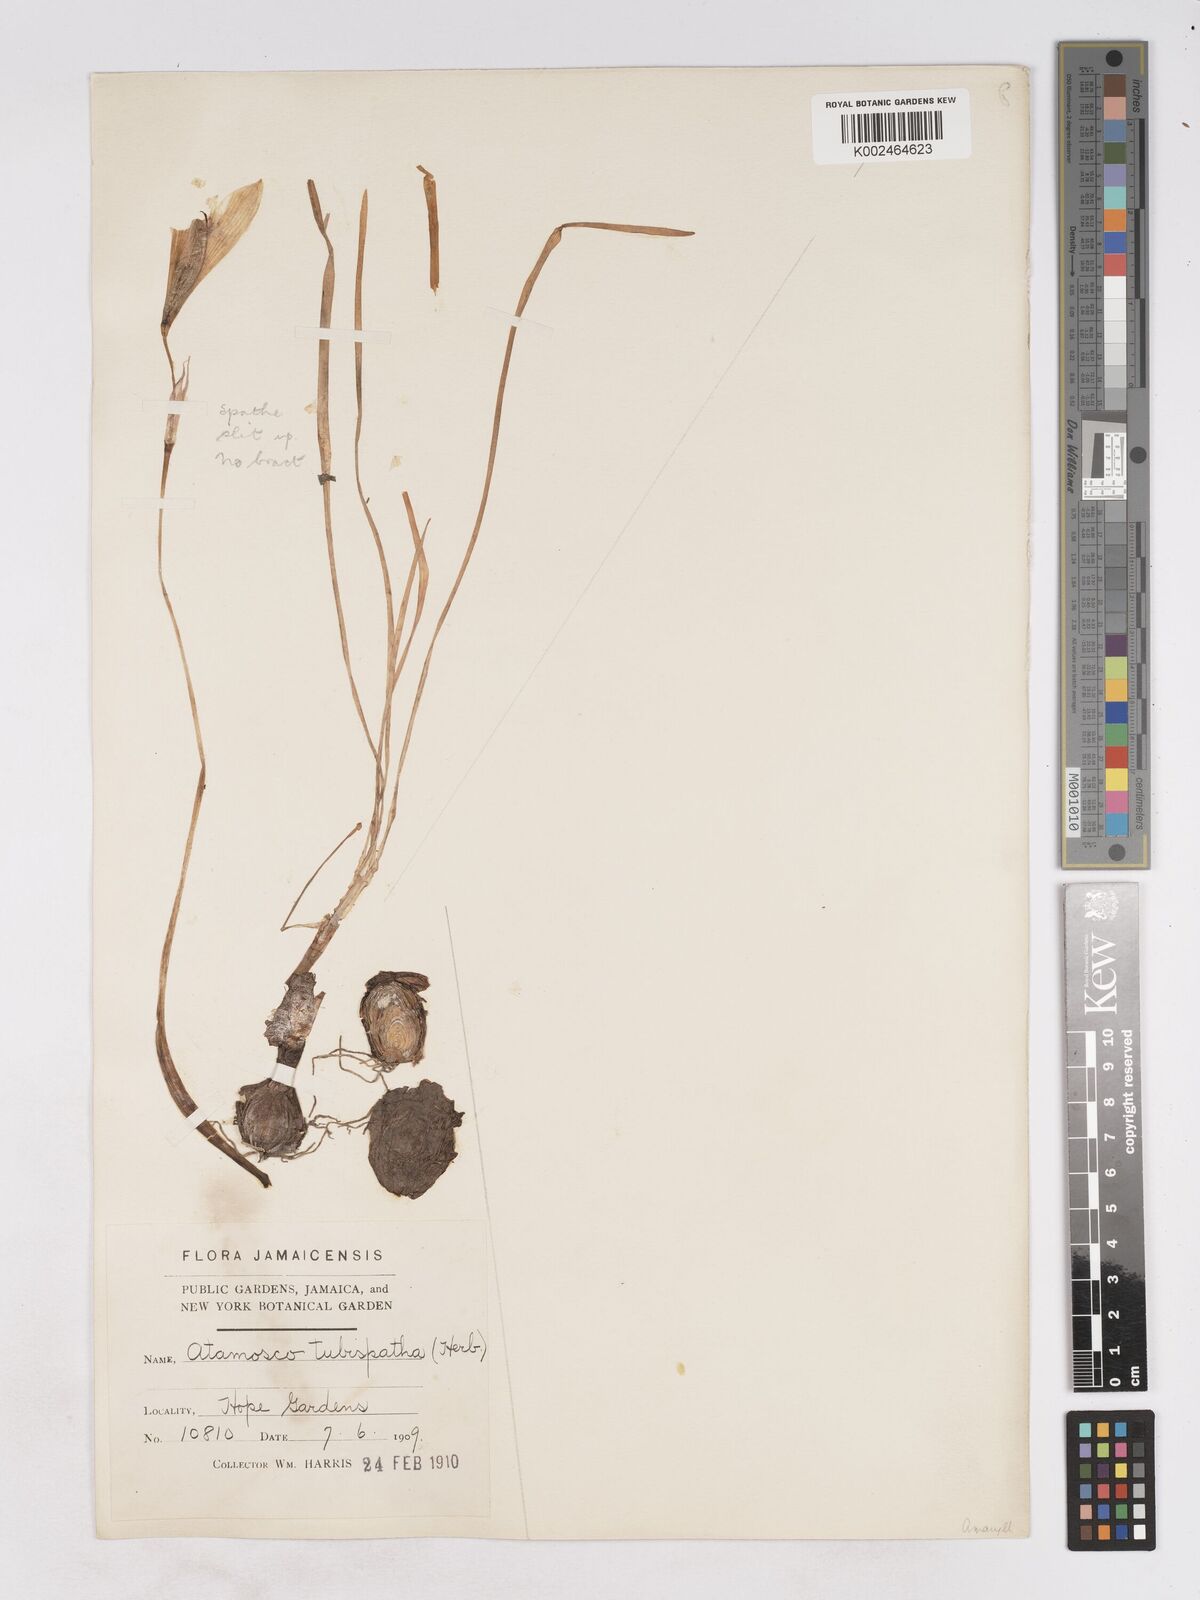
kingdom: Plantae
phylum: Tracheophyta
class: Liliopsida
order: Asparagales
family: Amaryllidaceae
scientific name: Amaryllidaceae
